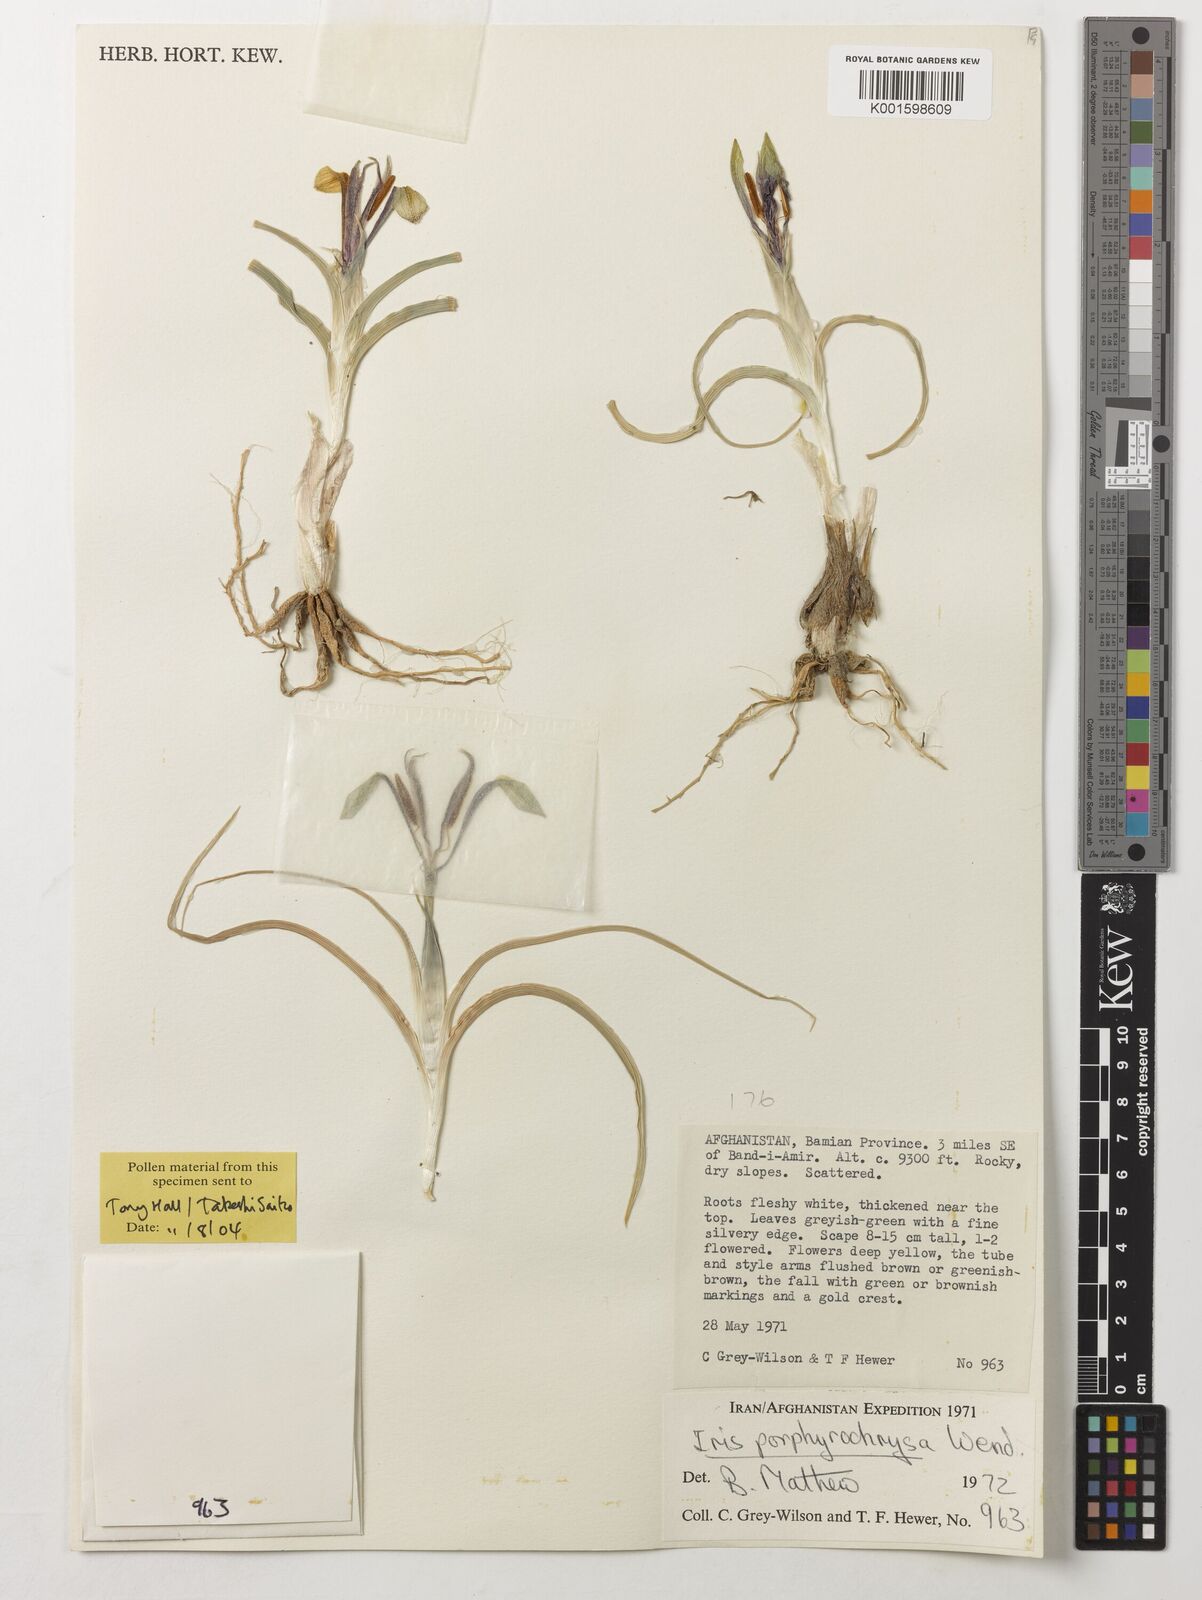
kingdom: Plantae
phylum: Tracheophyta
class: Liliopsida
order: Asparagales
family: Iridaceae
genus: Iris
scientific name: Iris porphyrochrysa
